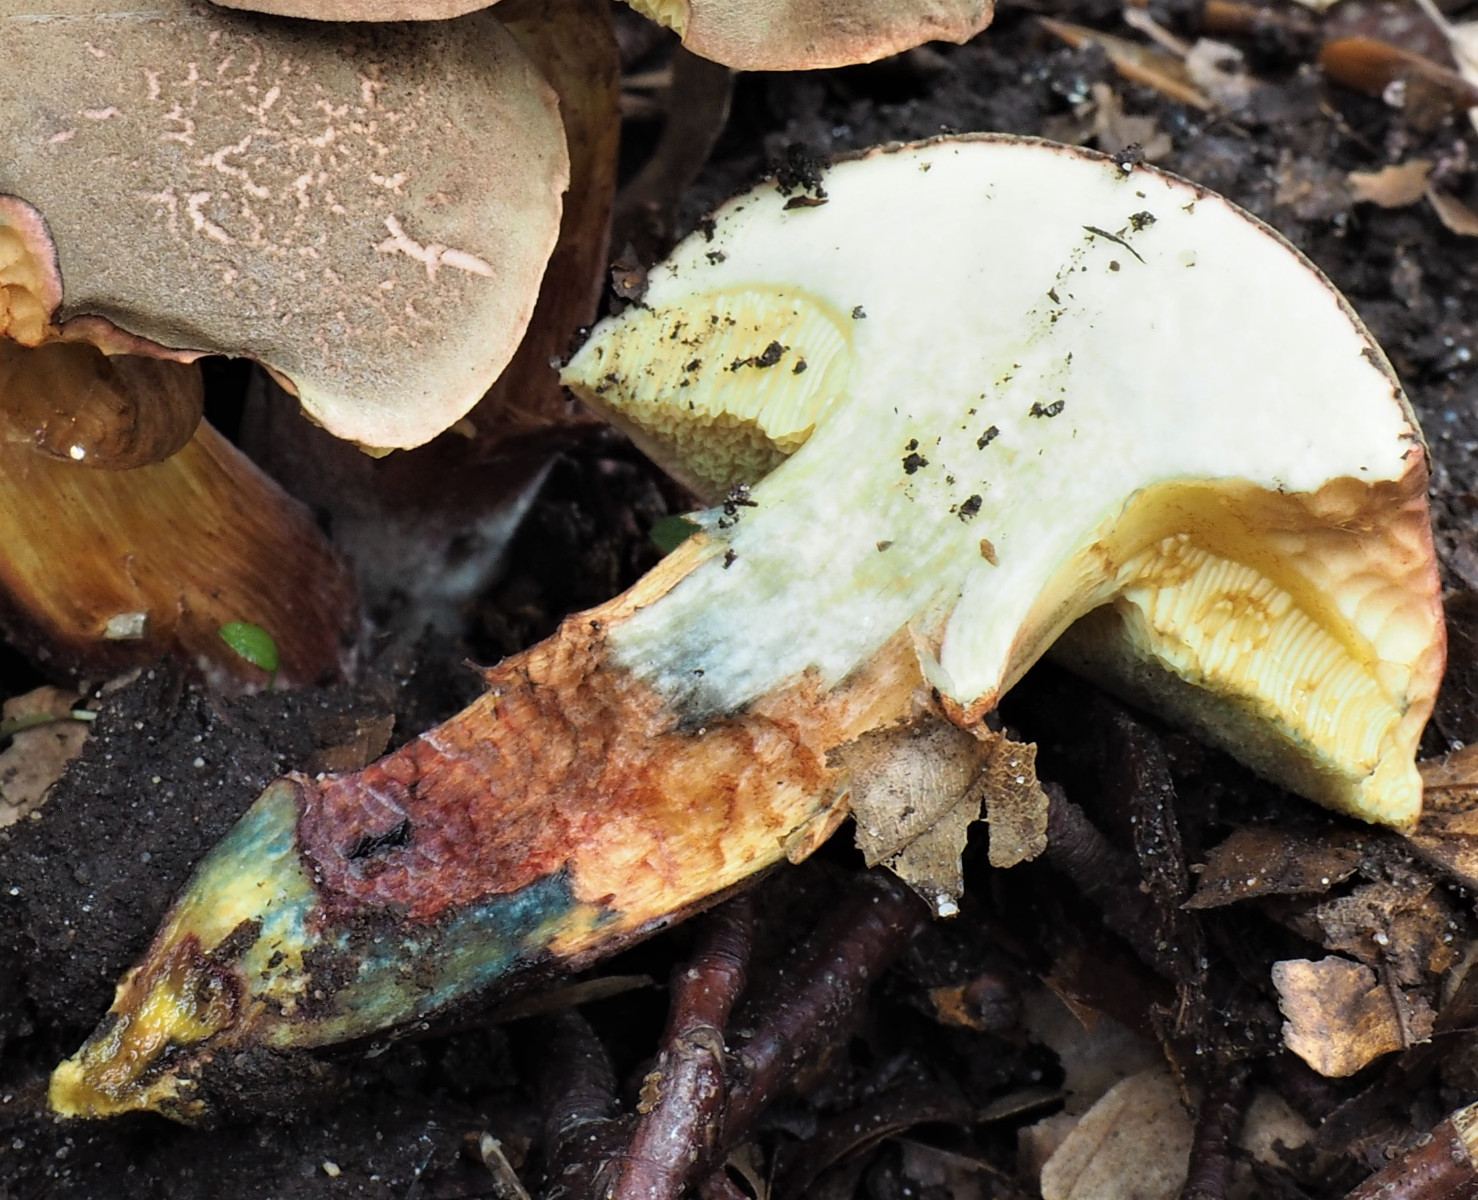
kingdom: Fungi
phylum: Basidiomycota
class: Agaricomycetes
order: Boletales
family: Boletaceae
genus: Xerocomellus
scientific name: Xerocomellus cisalpinus
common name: finsprukken rørhat
